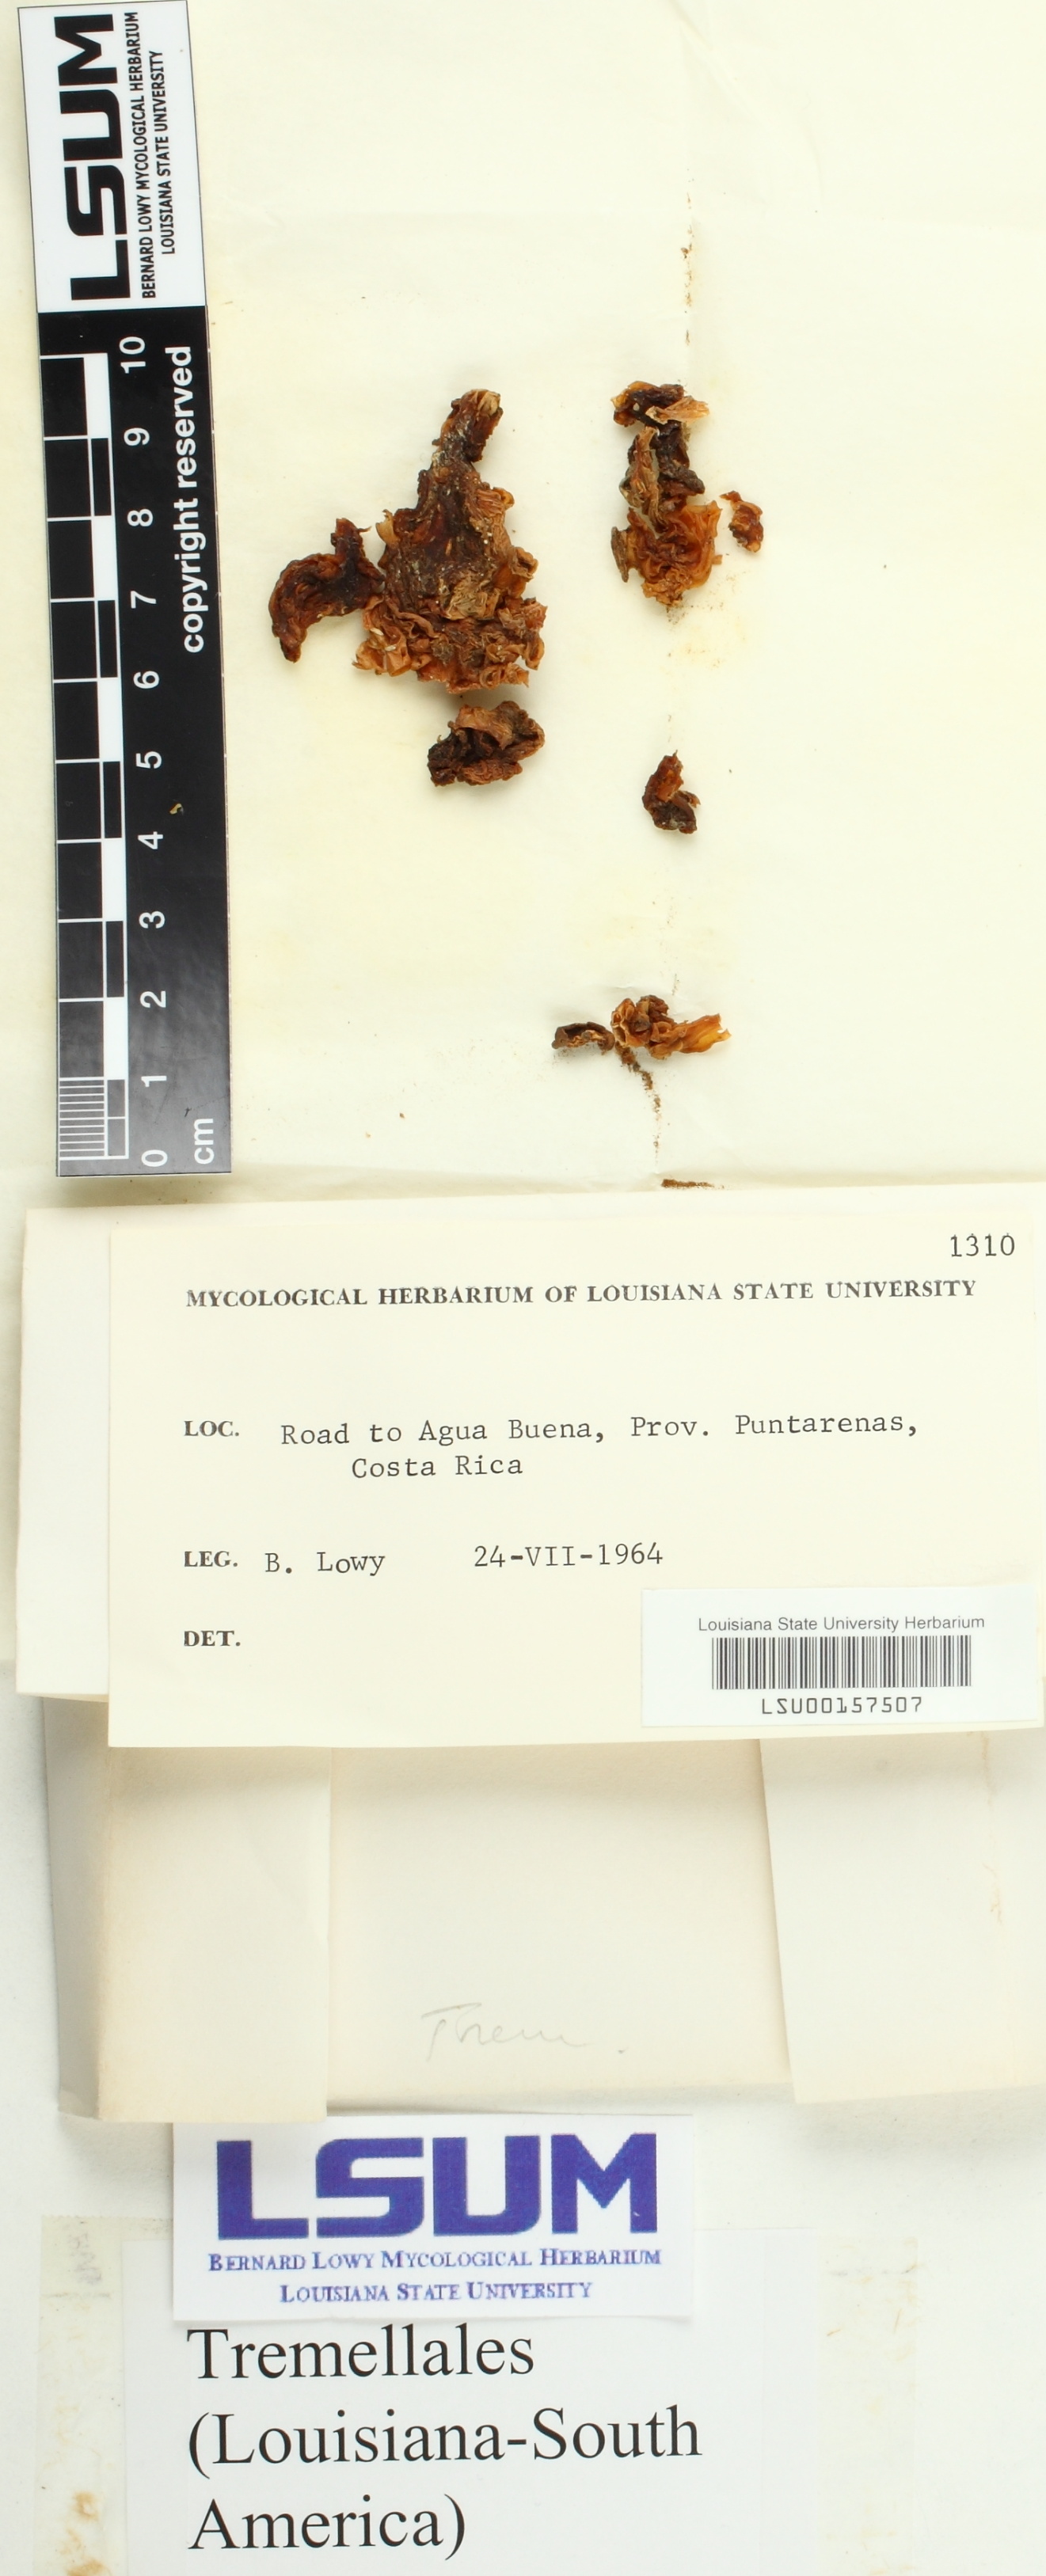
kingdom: Fungi
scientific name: Fungi
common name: Fungi
